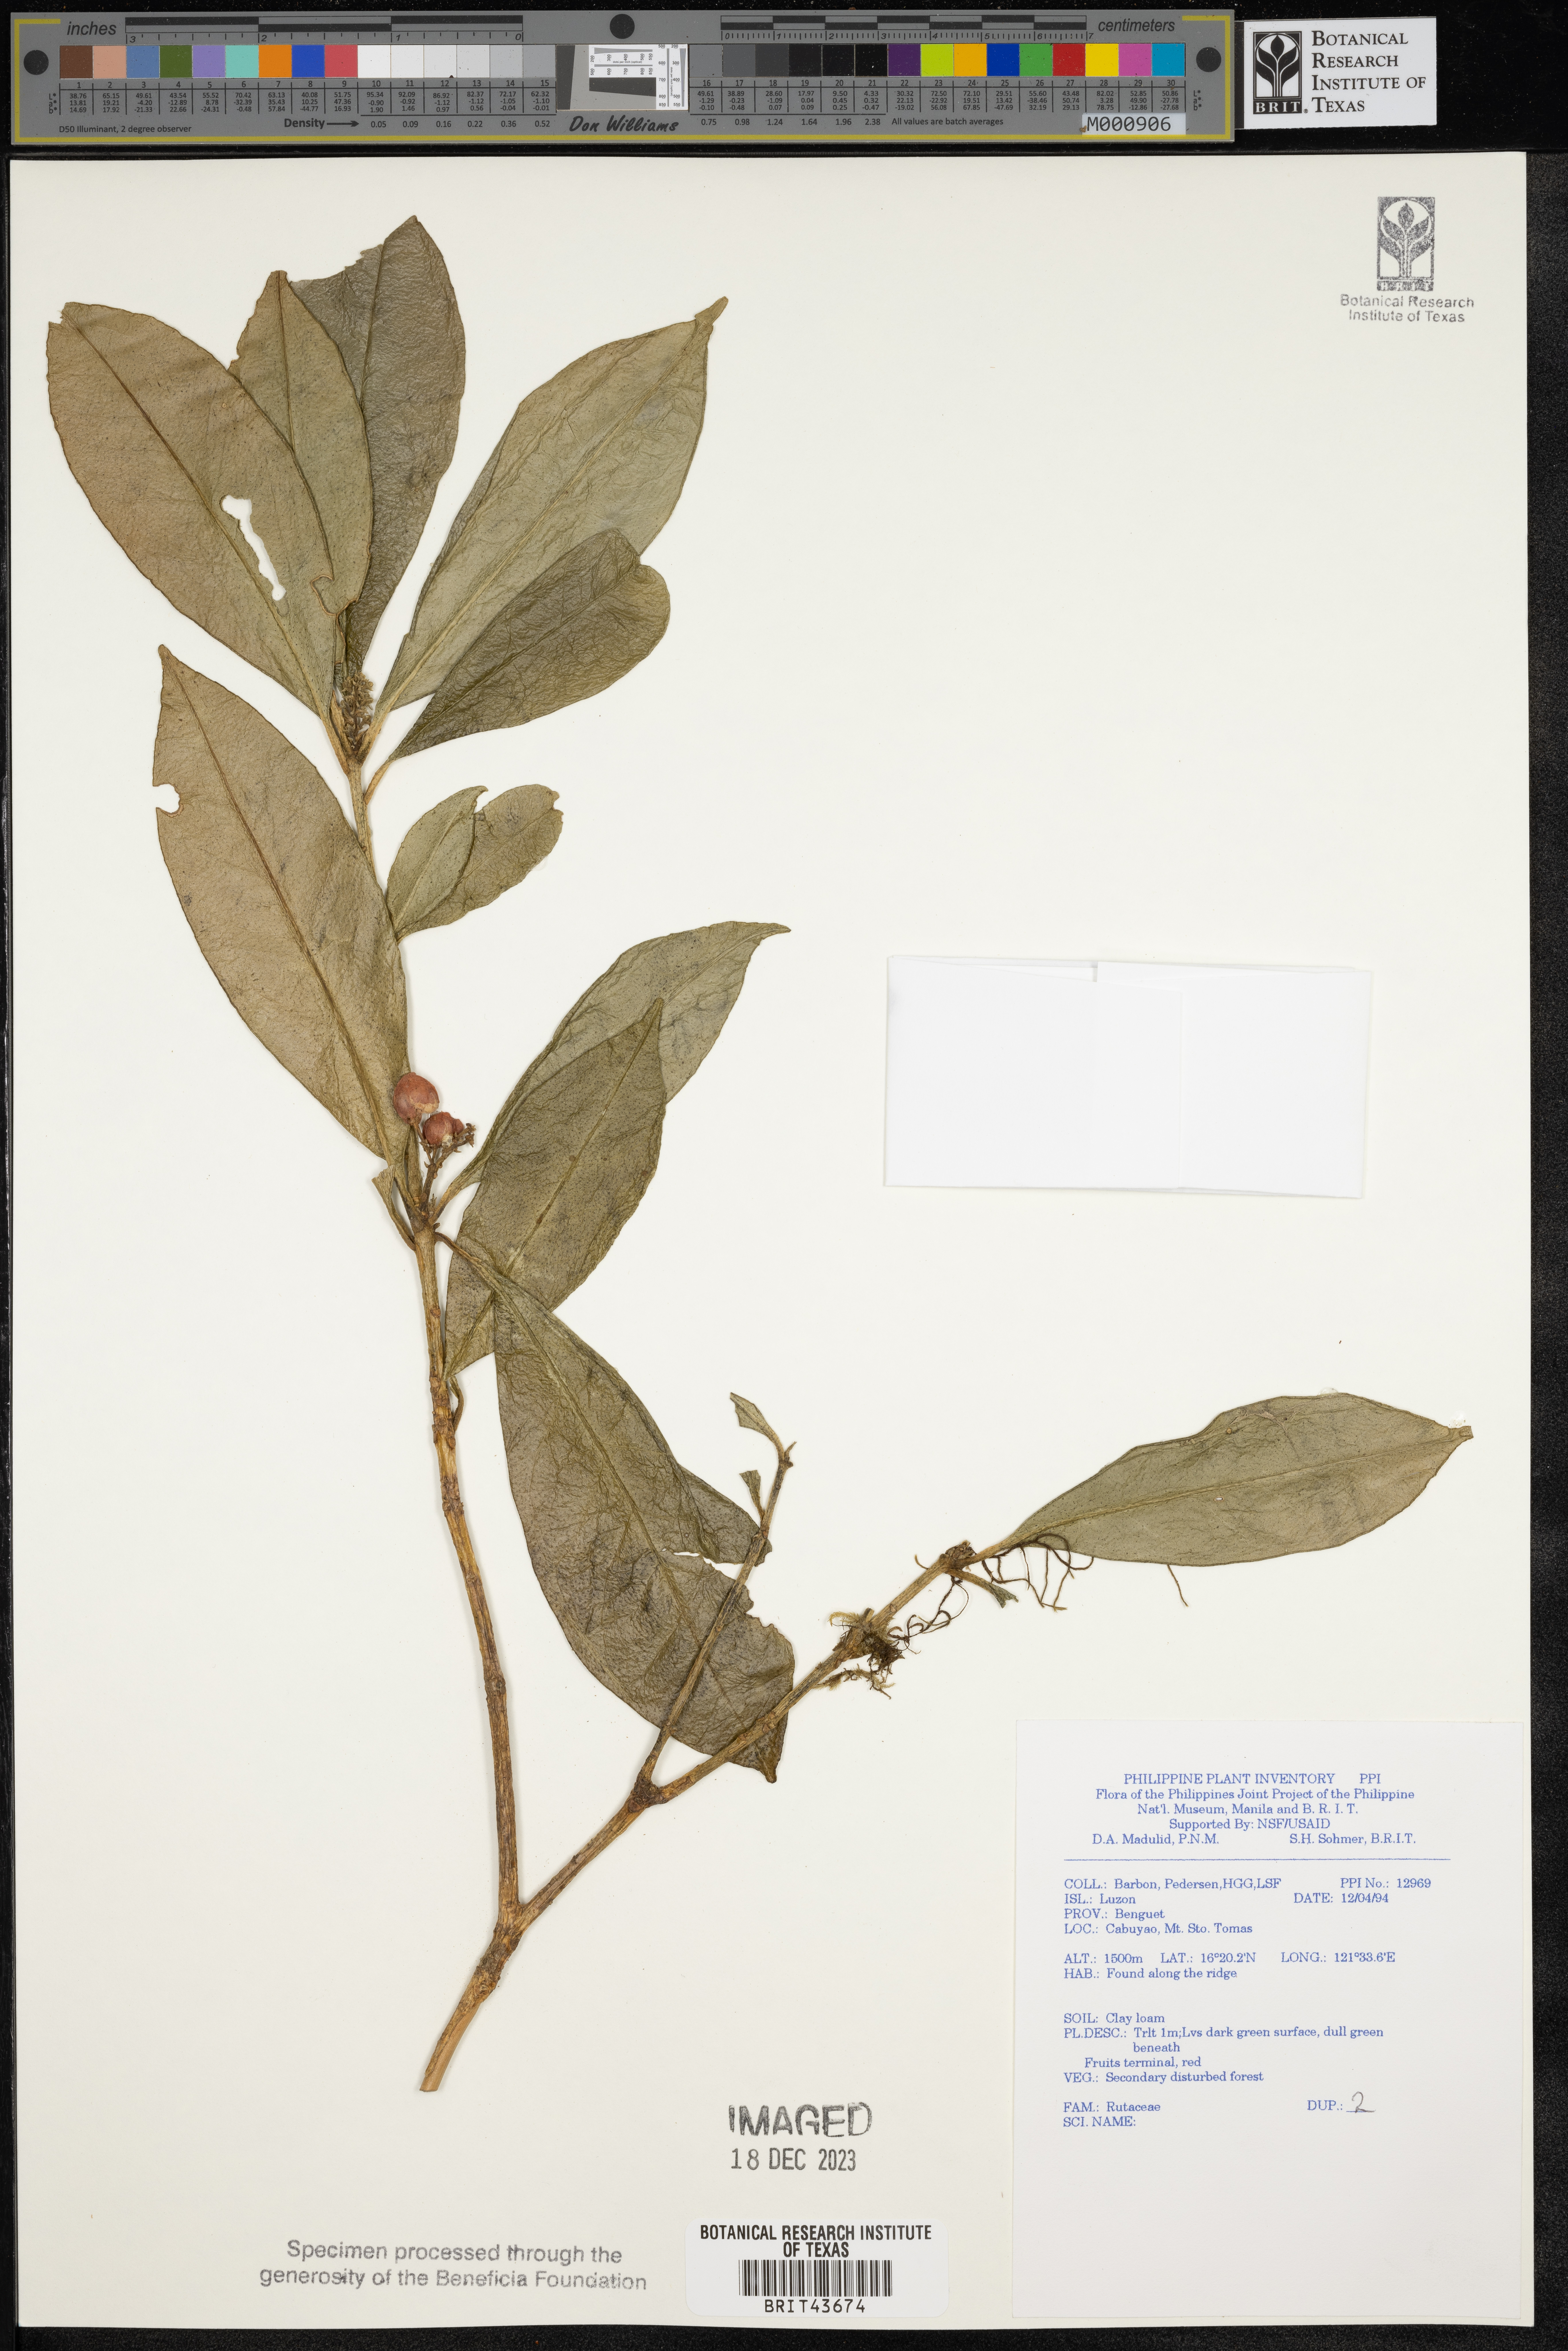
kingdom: Plantae
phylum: Tracheophyta
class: Magnoliopsida
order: Sapindales
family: Rutaceae
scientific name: Rutaceae
